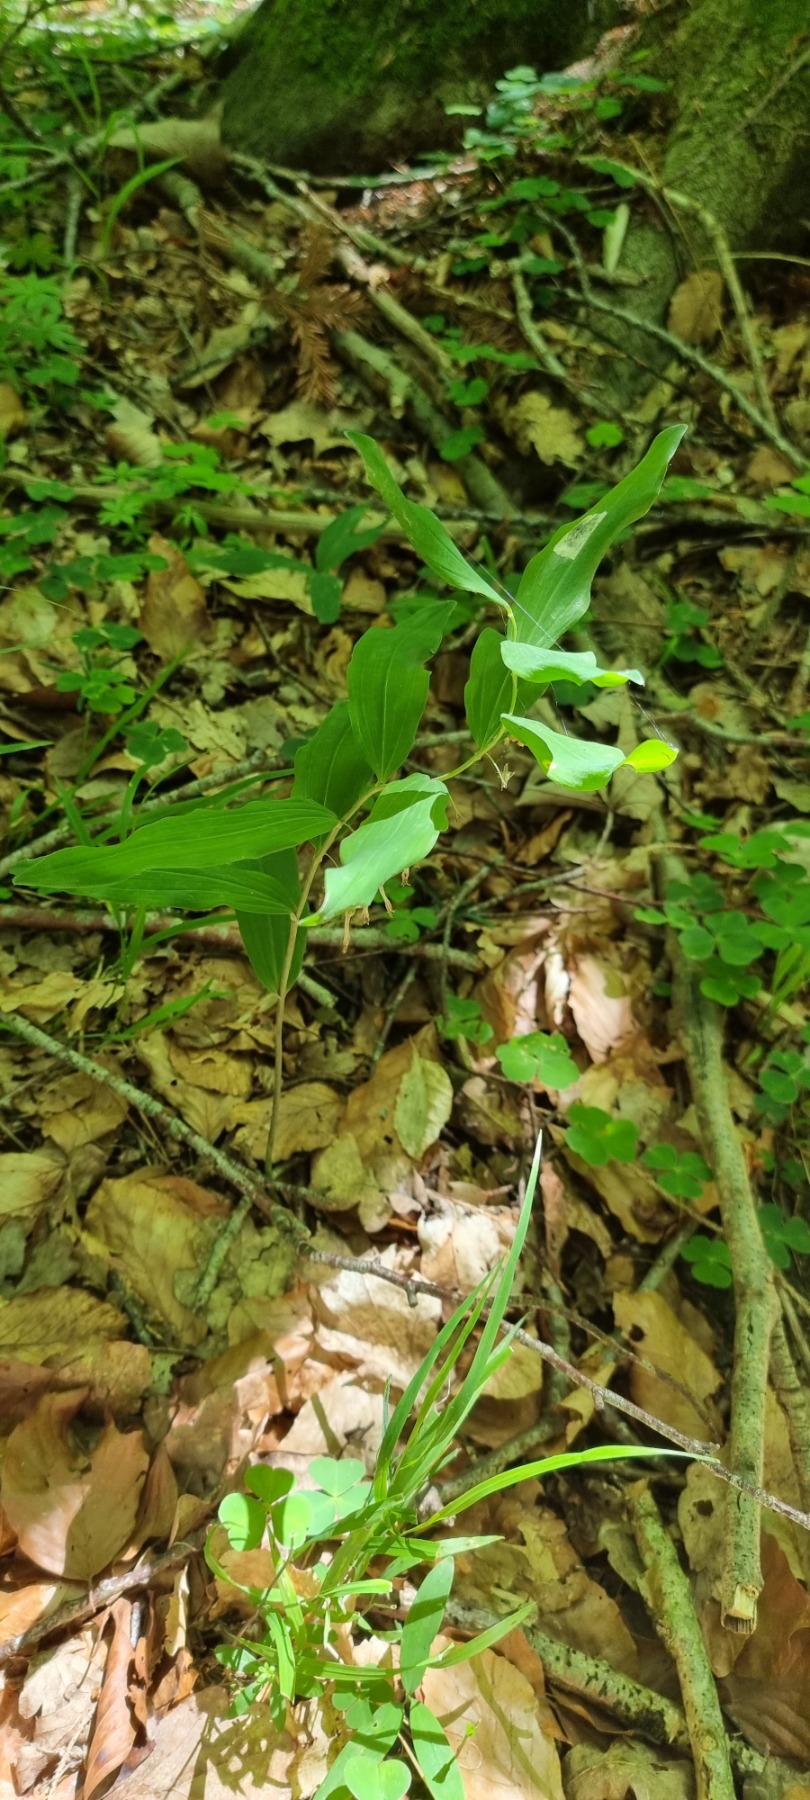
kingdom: Plantae
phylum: Tracheophyta
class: Liliopsida
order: Asparagales
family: Asparagaceae
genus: Polygonatum
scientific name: Polygonatum multiflorum
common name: Stor konval
